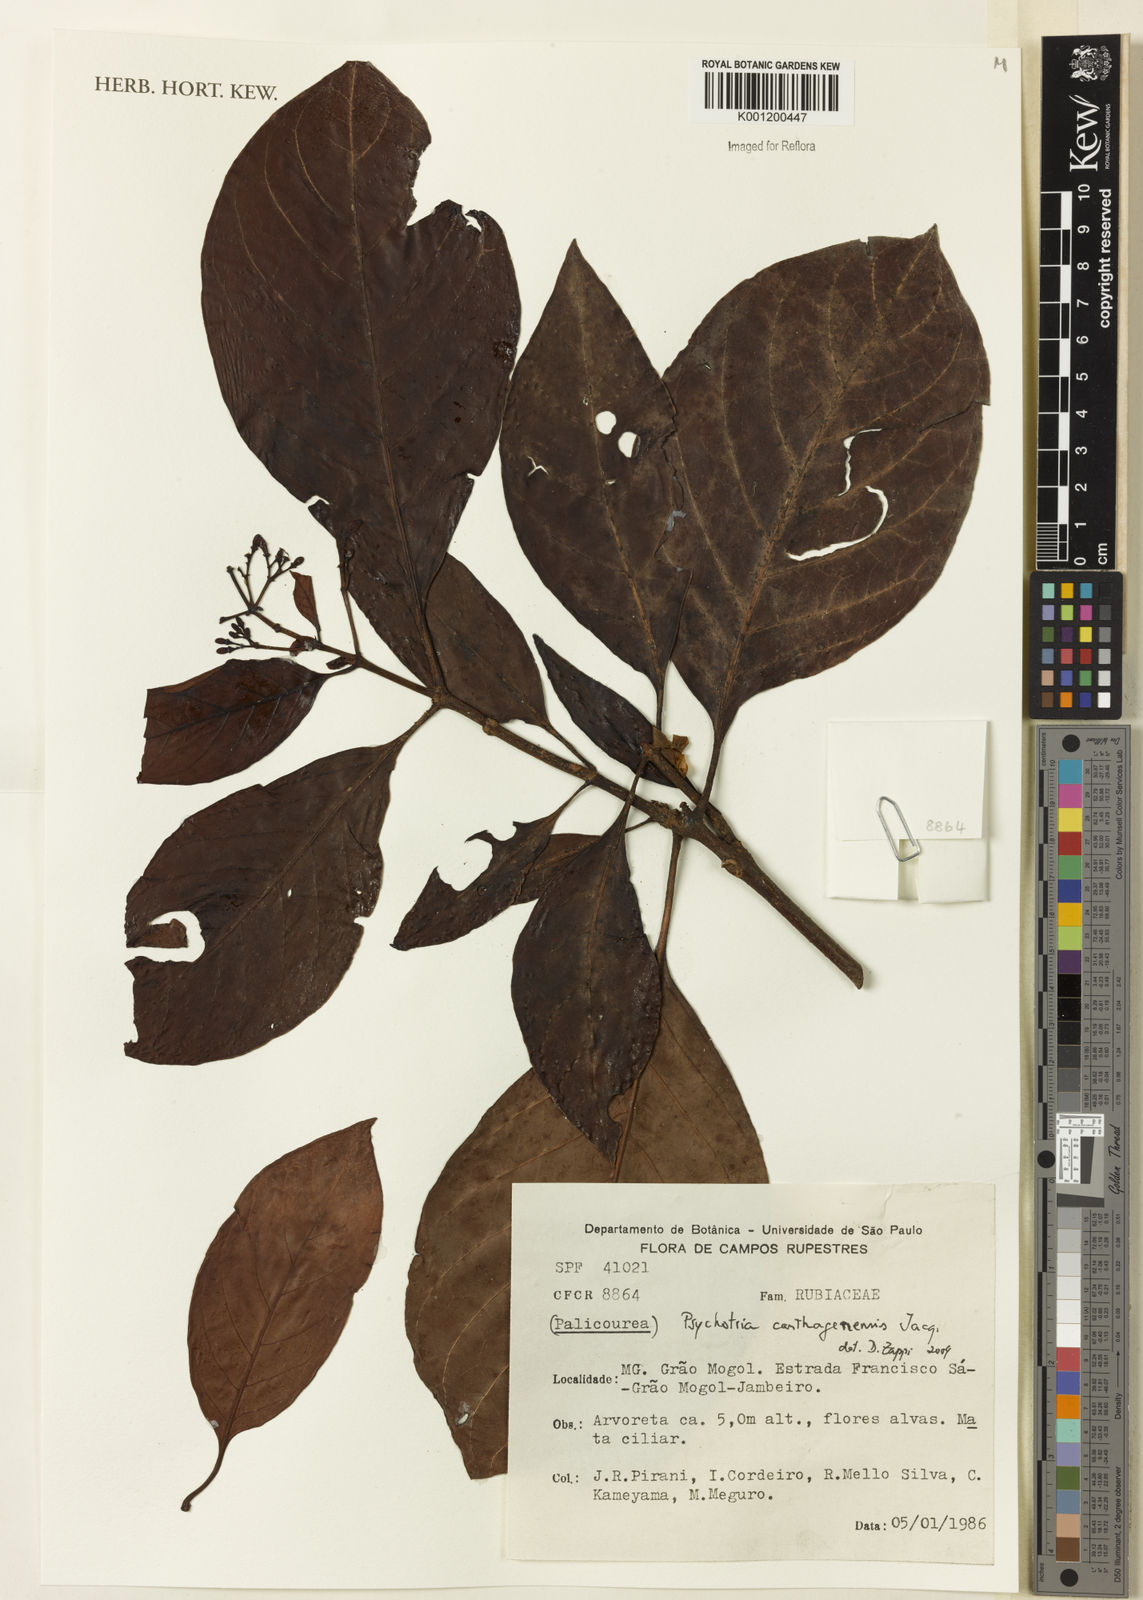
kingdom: Plantae
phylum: Tracheophyta
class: Magnoliopsida
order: Gentianales
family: Rubiaceae
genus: Psychotria
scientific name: Psychotria carthagenensis
